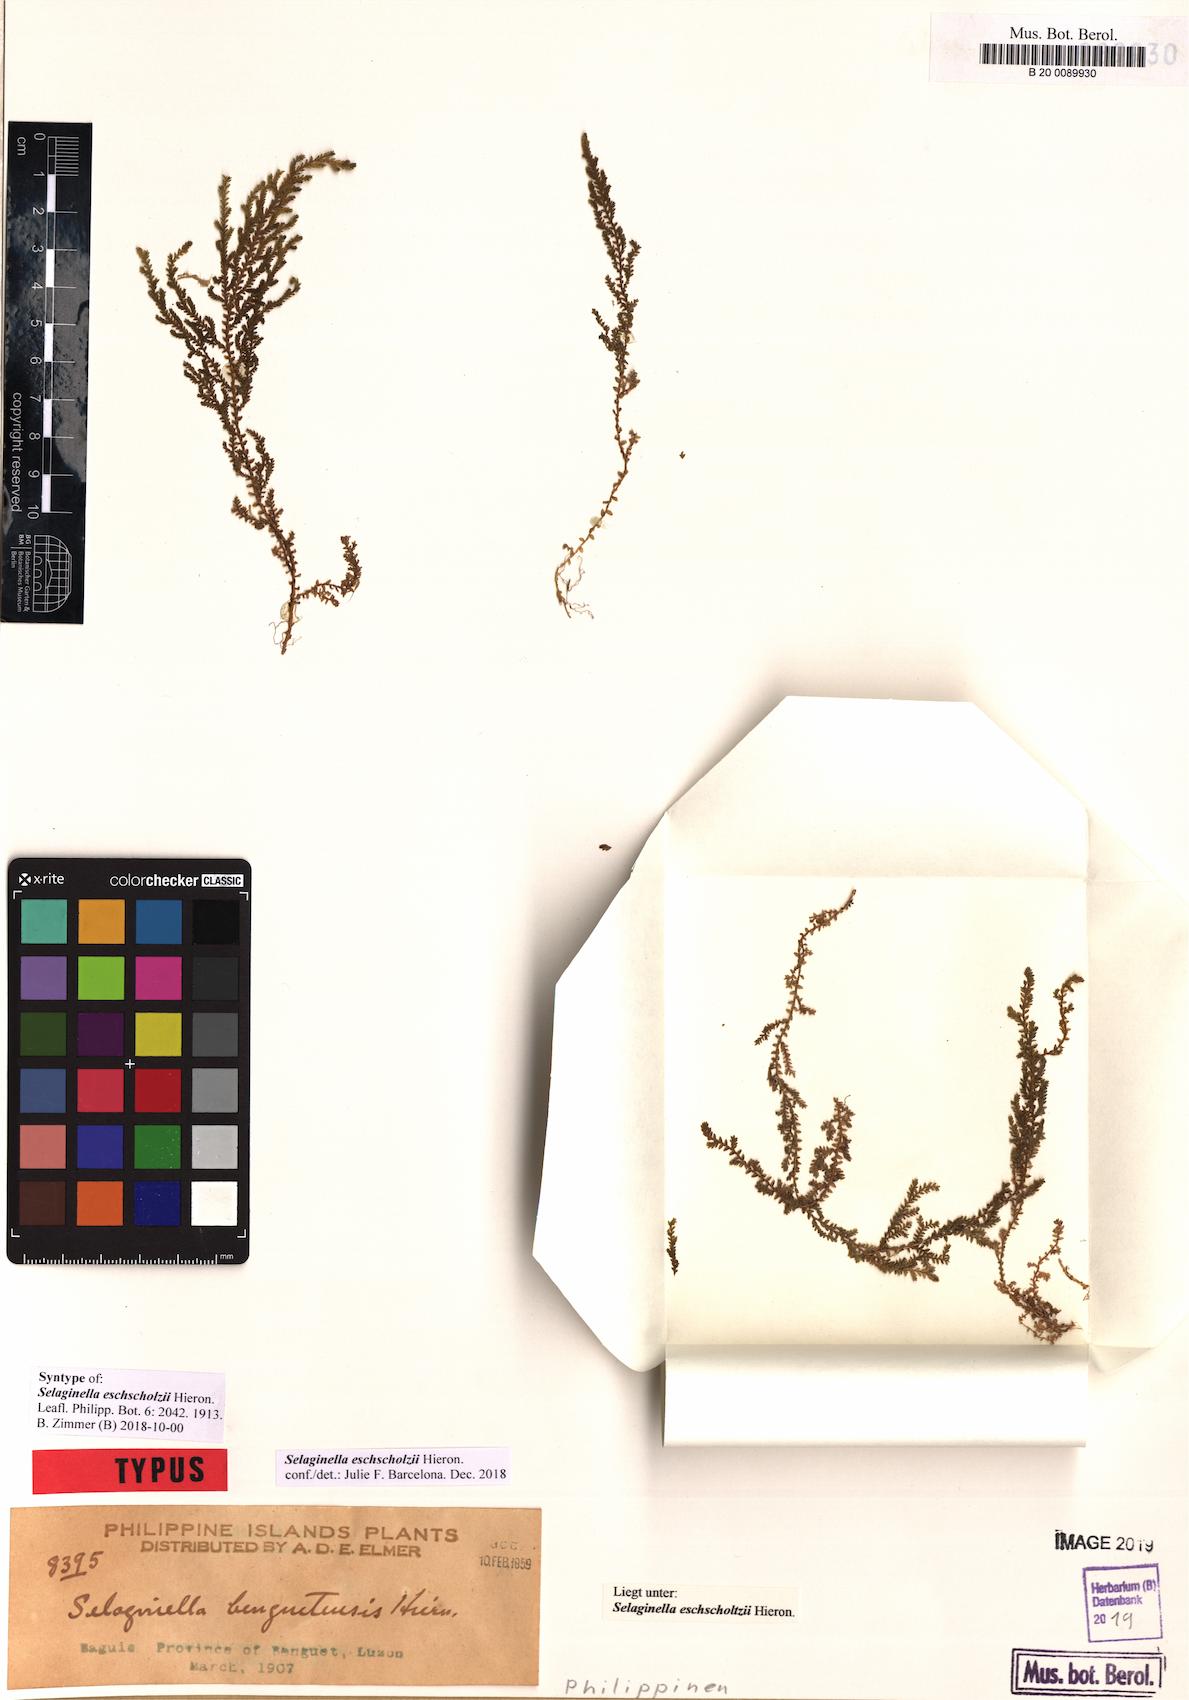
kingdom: Plantae
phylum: Tracheophyta
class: Lycopodiopsida
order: Selaginellales
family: Selaginellaceae
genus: Selaginella
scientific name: Selaginella eschscholzii
